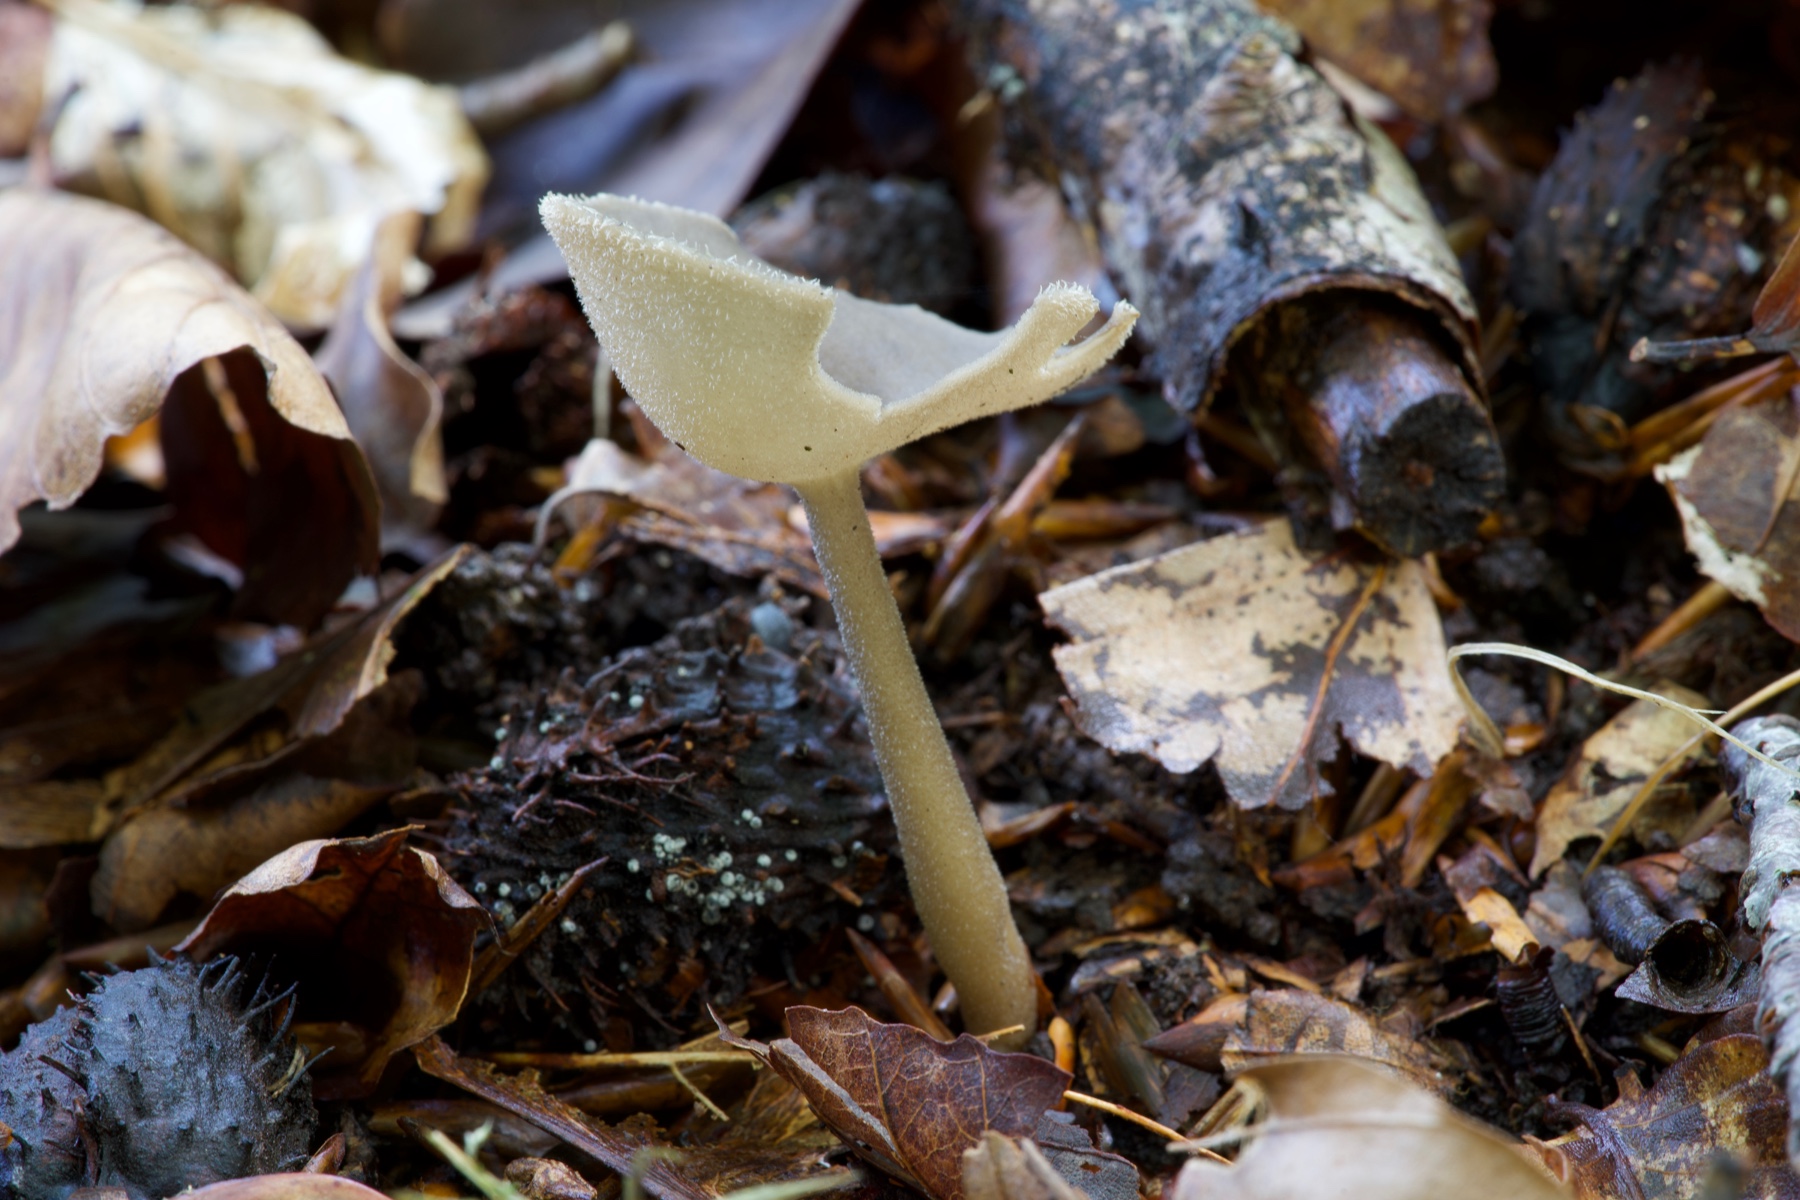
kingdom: Fungi
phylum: Ascomycota
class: Pezizomycetes
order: Pezizales
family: Helvellaceae
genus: Helvella
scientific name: Helvella macropus
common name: højstokket foldhat
